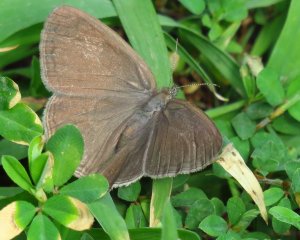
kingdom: Animalia
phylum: Arthropoda
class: Insecta
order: Lepidoptera
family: Nymphalidae
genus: Hermeuptychia
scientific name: Hermeuptychia hermes
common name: Carolina Satyr
